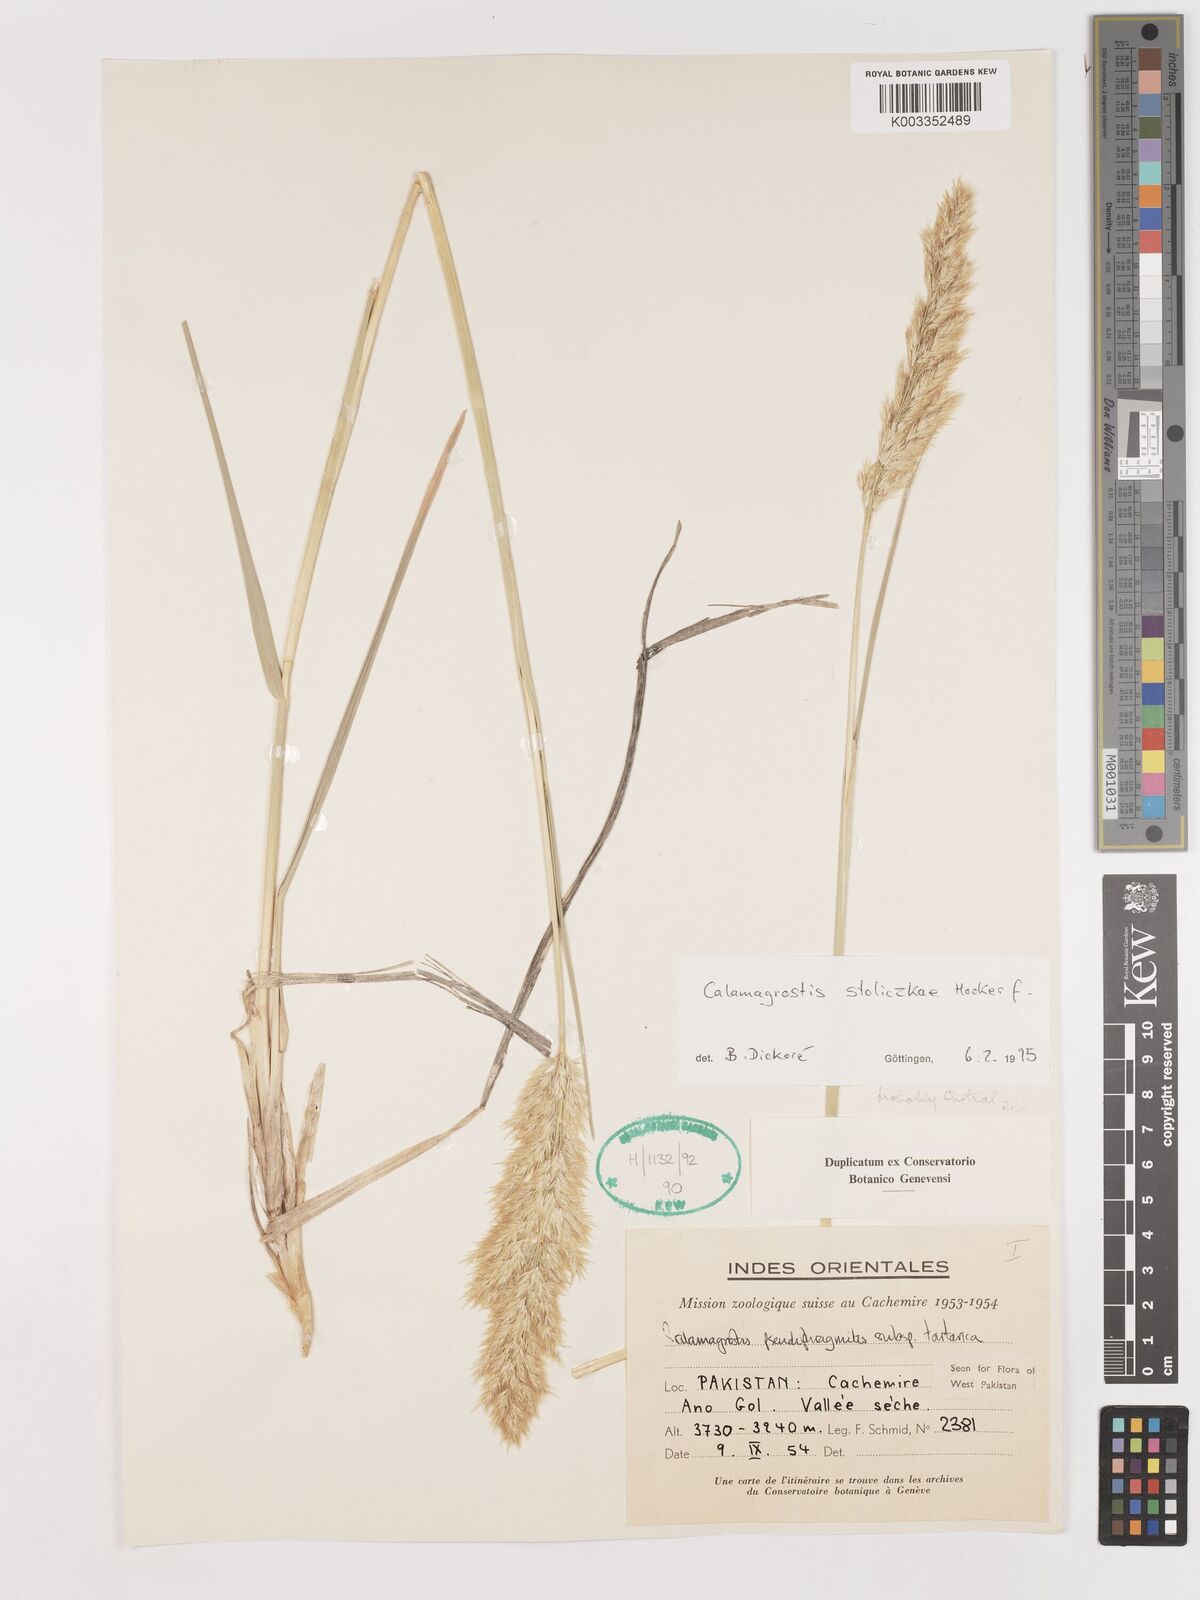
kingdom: Plantae
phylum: Tracheophyta
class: Liliopsida
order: Poales
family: Poaceae
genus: Calamagrostis
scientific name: Calamagrostis stolizkae
